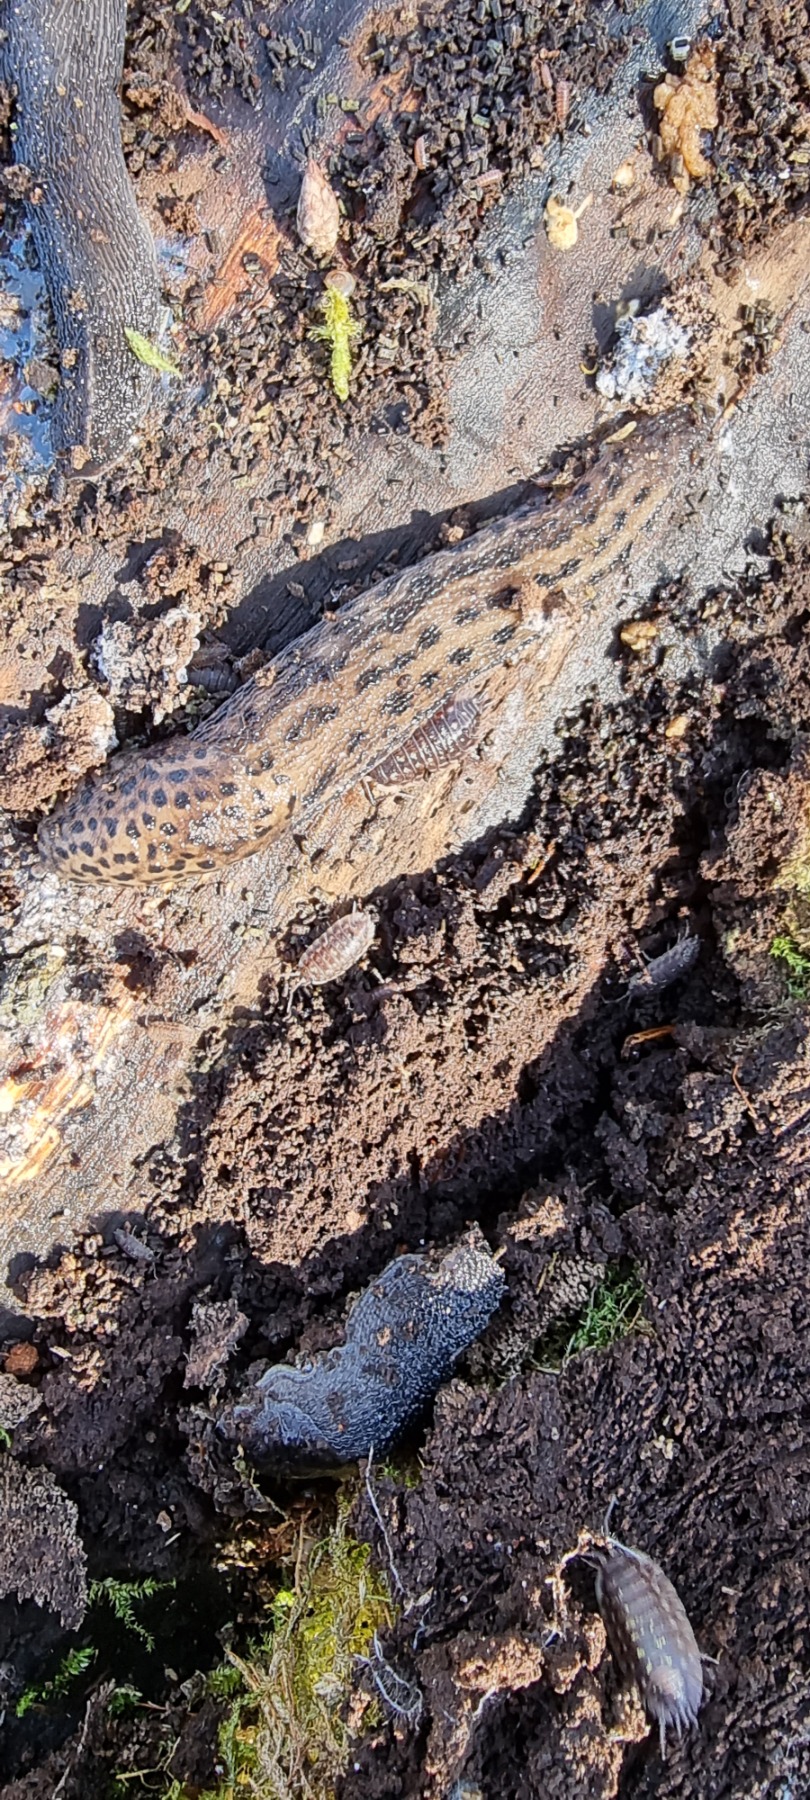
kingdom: Animalia
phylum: Mollusca
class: Gastropoda
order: Stylommatophora
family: Limacidae
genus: Limax
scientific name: Limax maximus
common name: Pantersnegl
